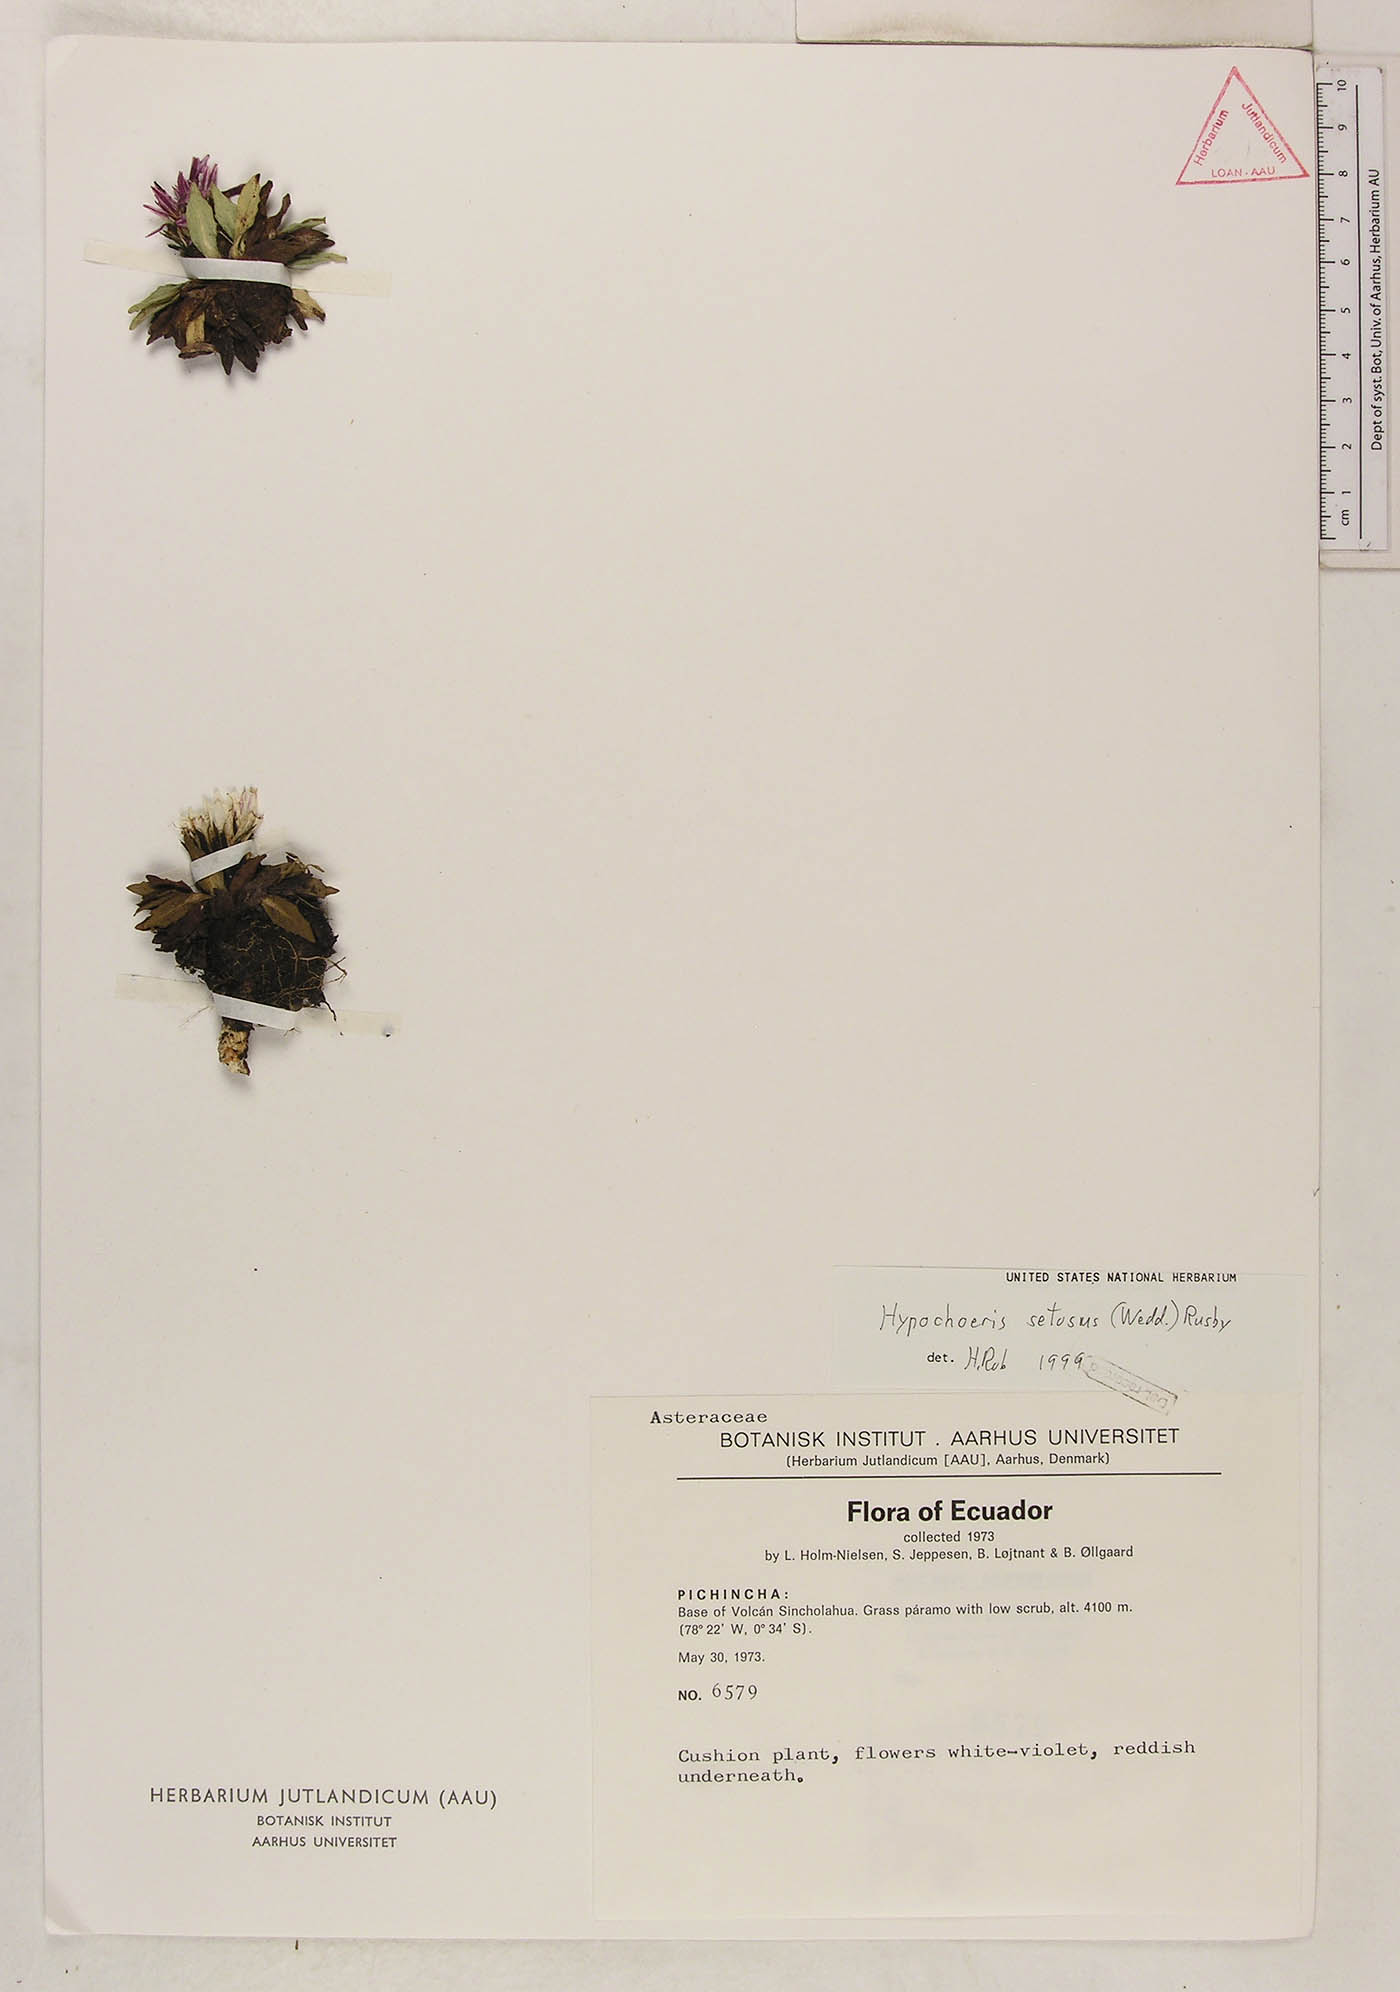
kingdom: Plantae
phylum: Tracheophyta
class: Magnoliopsida
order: Asterales
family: Asteraceae
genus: Hypochaeris
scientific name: Hypochaeris echegarayi
